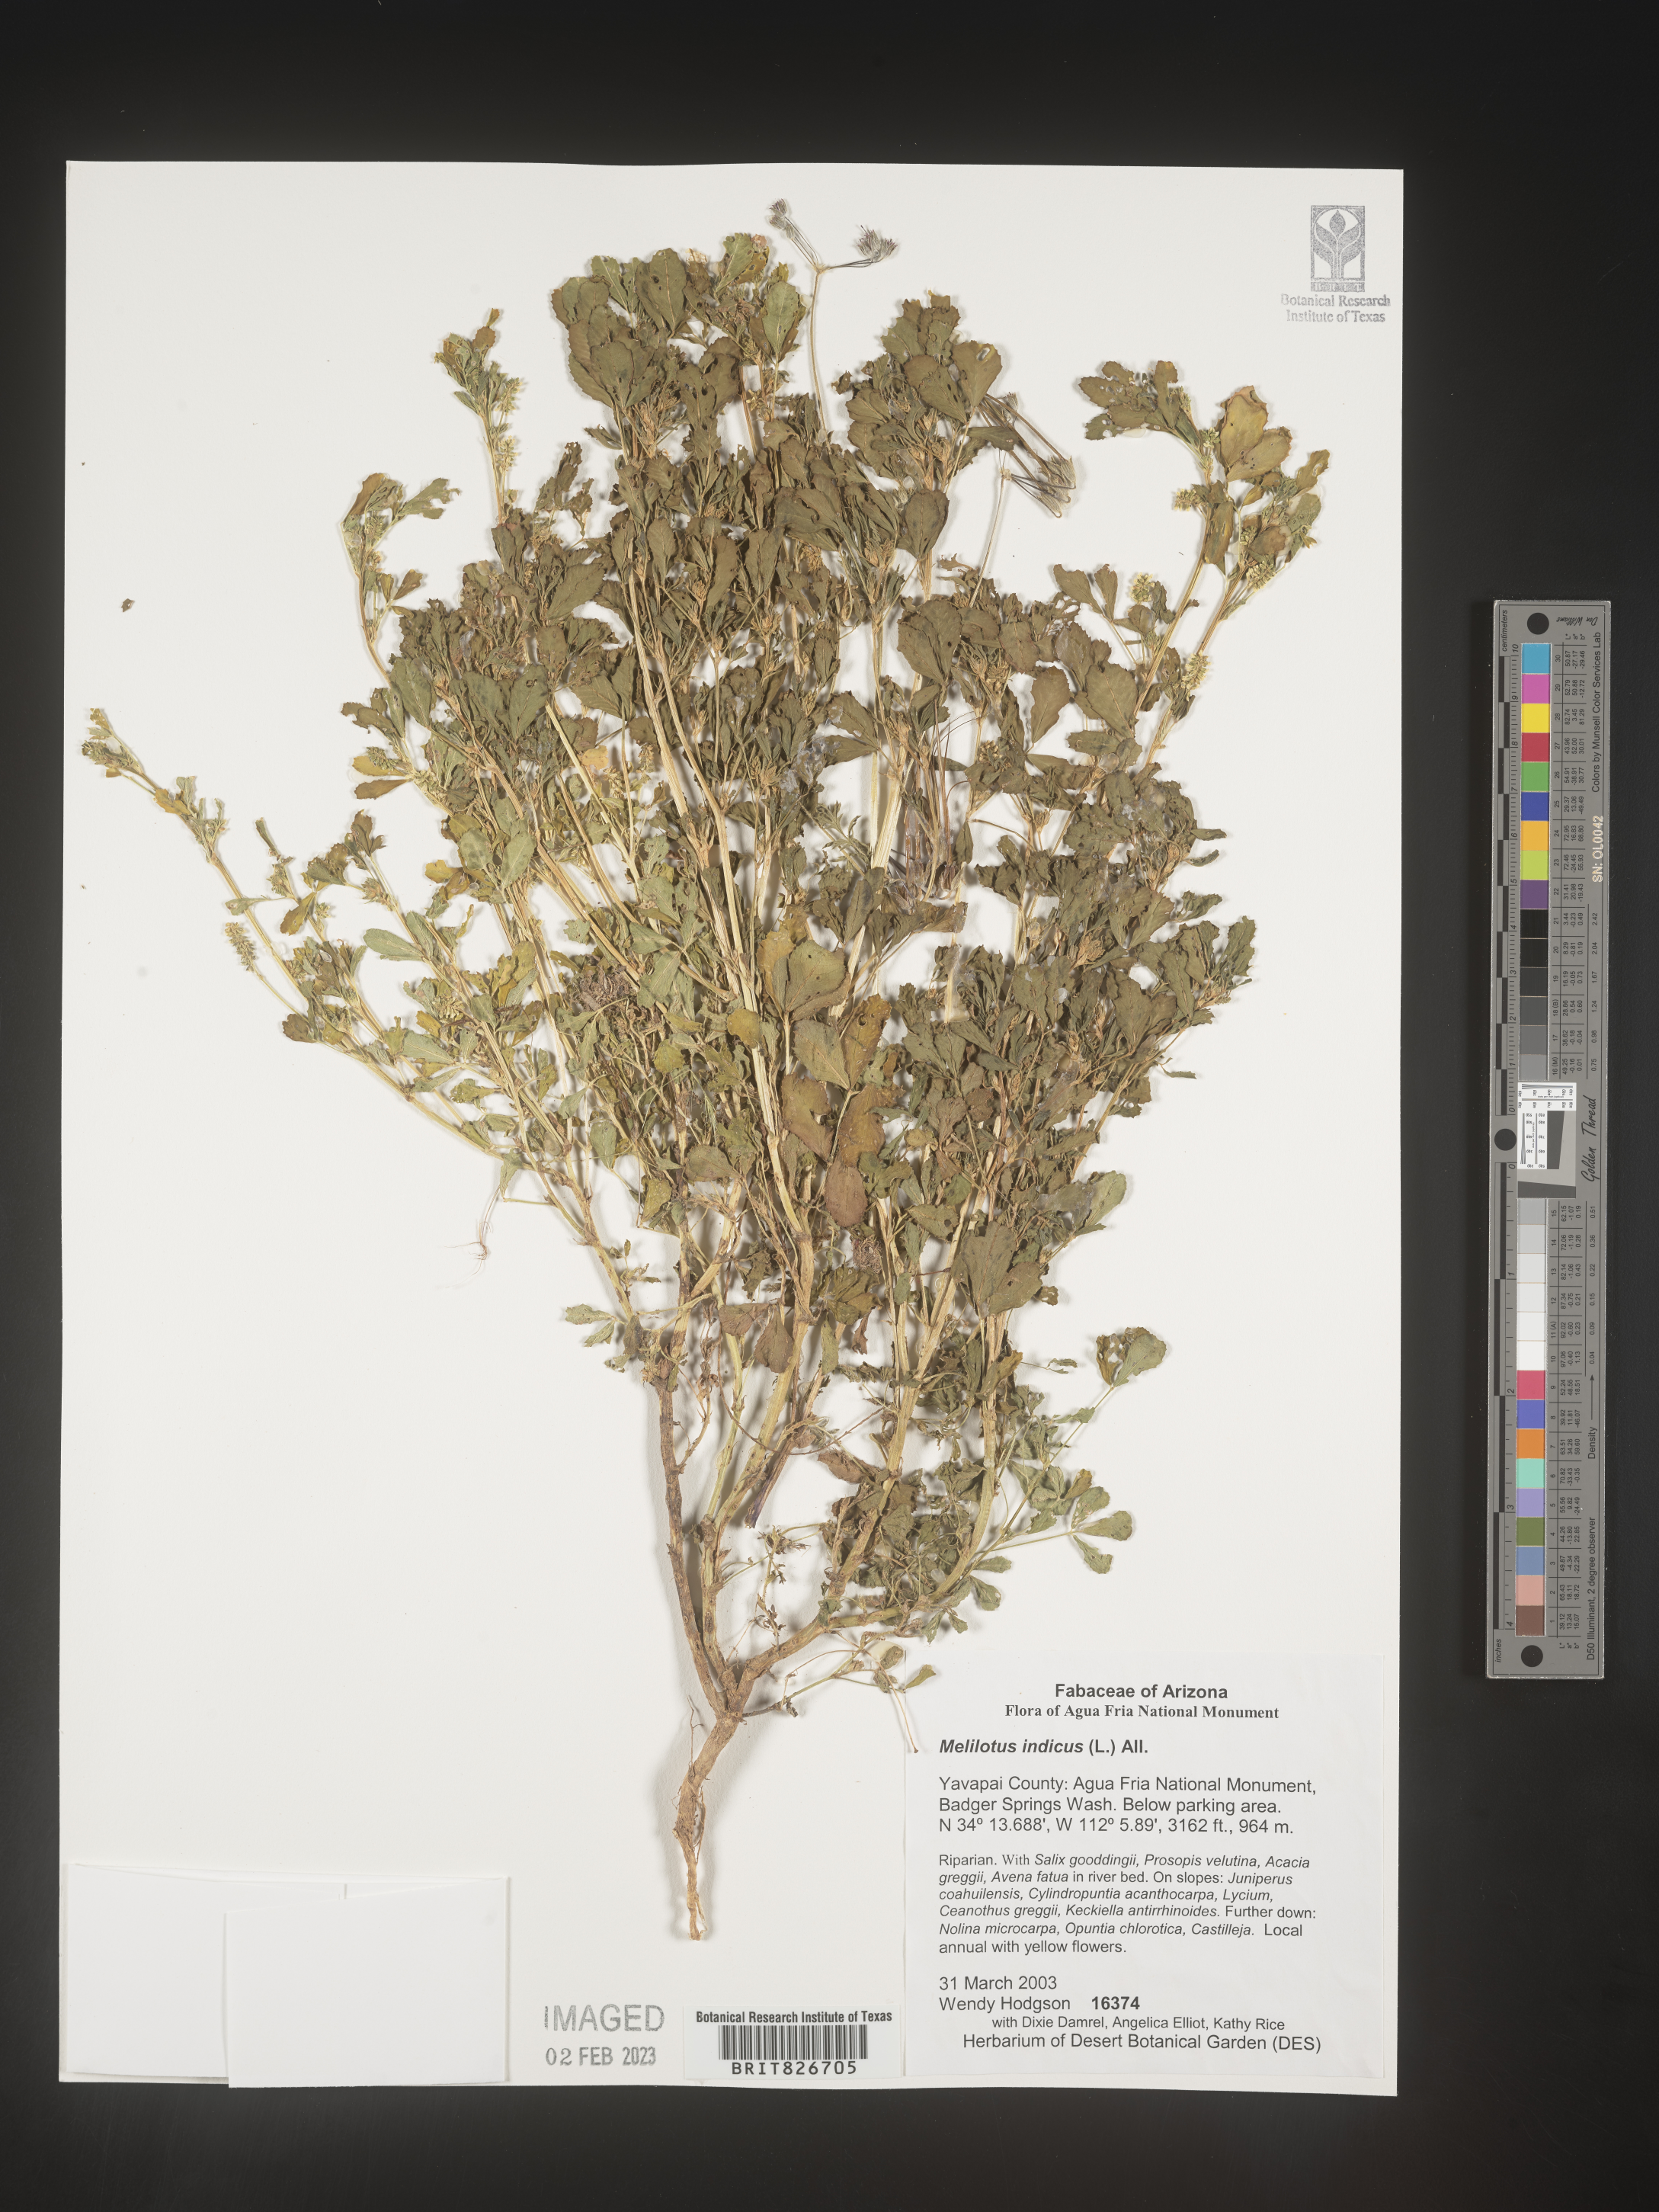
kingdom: Plantae
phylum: Tracheophyta
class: Magnoliopsida
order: Fabales
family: Fabaceae
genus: Melilotus
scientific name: Melilotus indicus
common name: Small melilot
